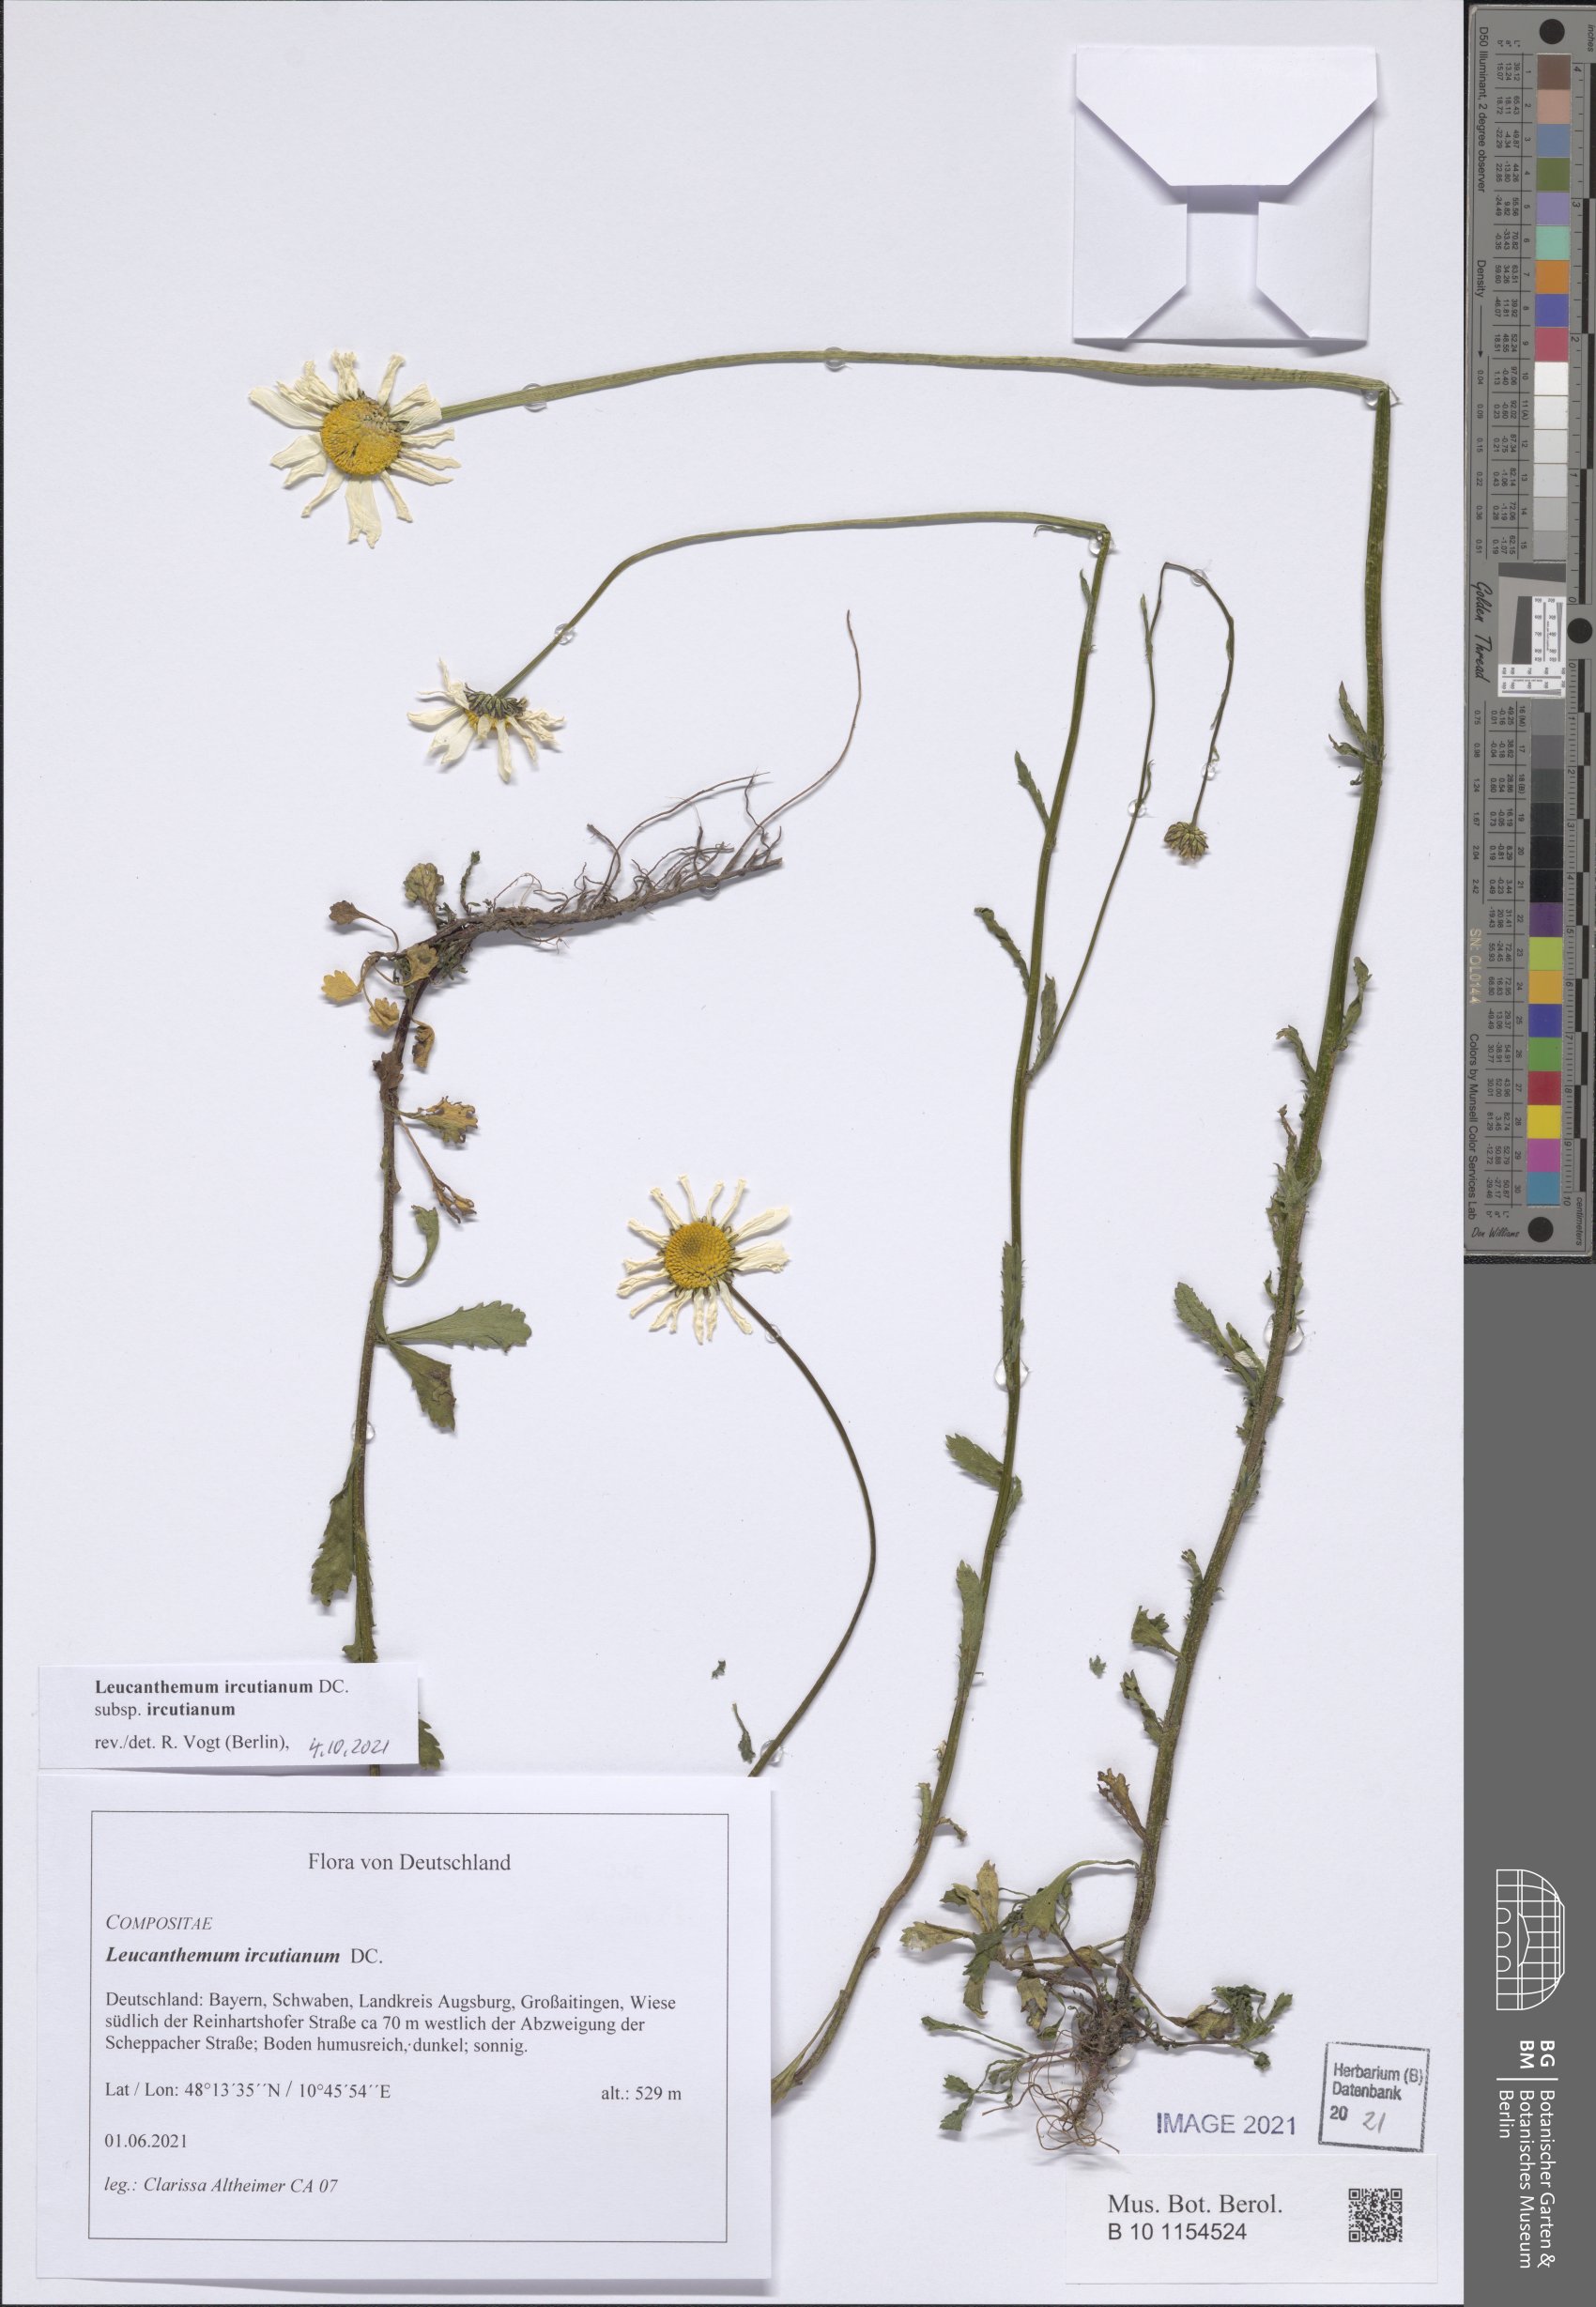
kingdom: Plantae
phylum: Tracheophyta
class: Magnoliopsida
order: Asterales
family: Asteraceae
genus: Leucanthemum
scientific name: Leucanthemum ircutianum
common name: Daisy
